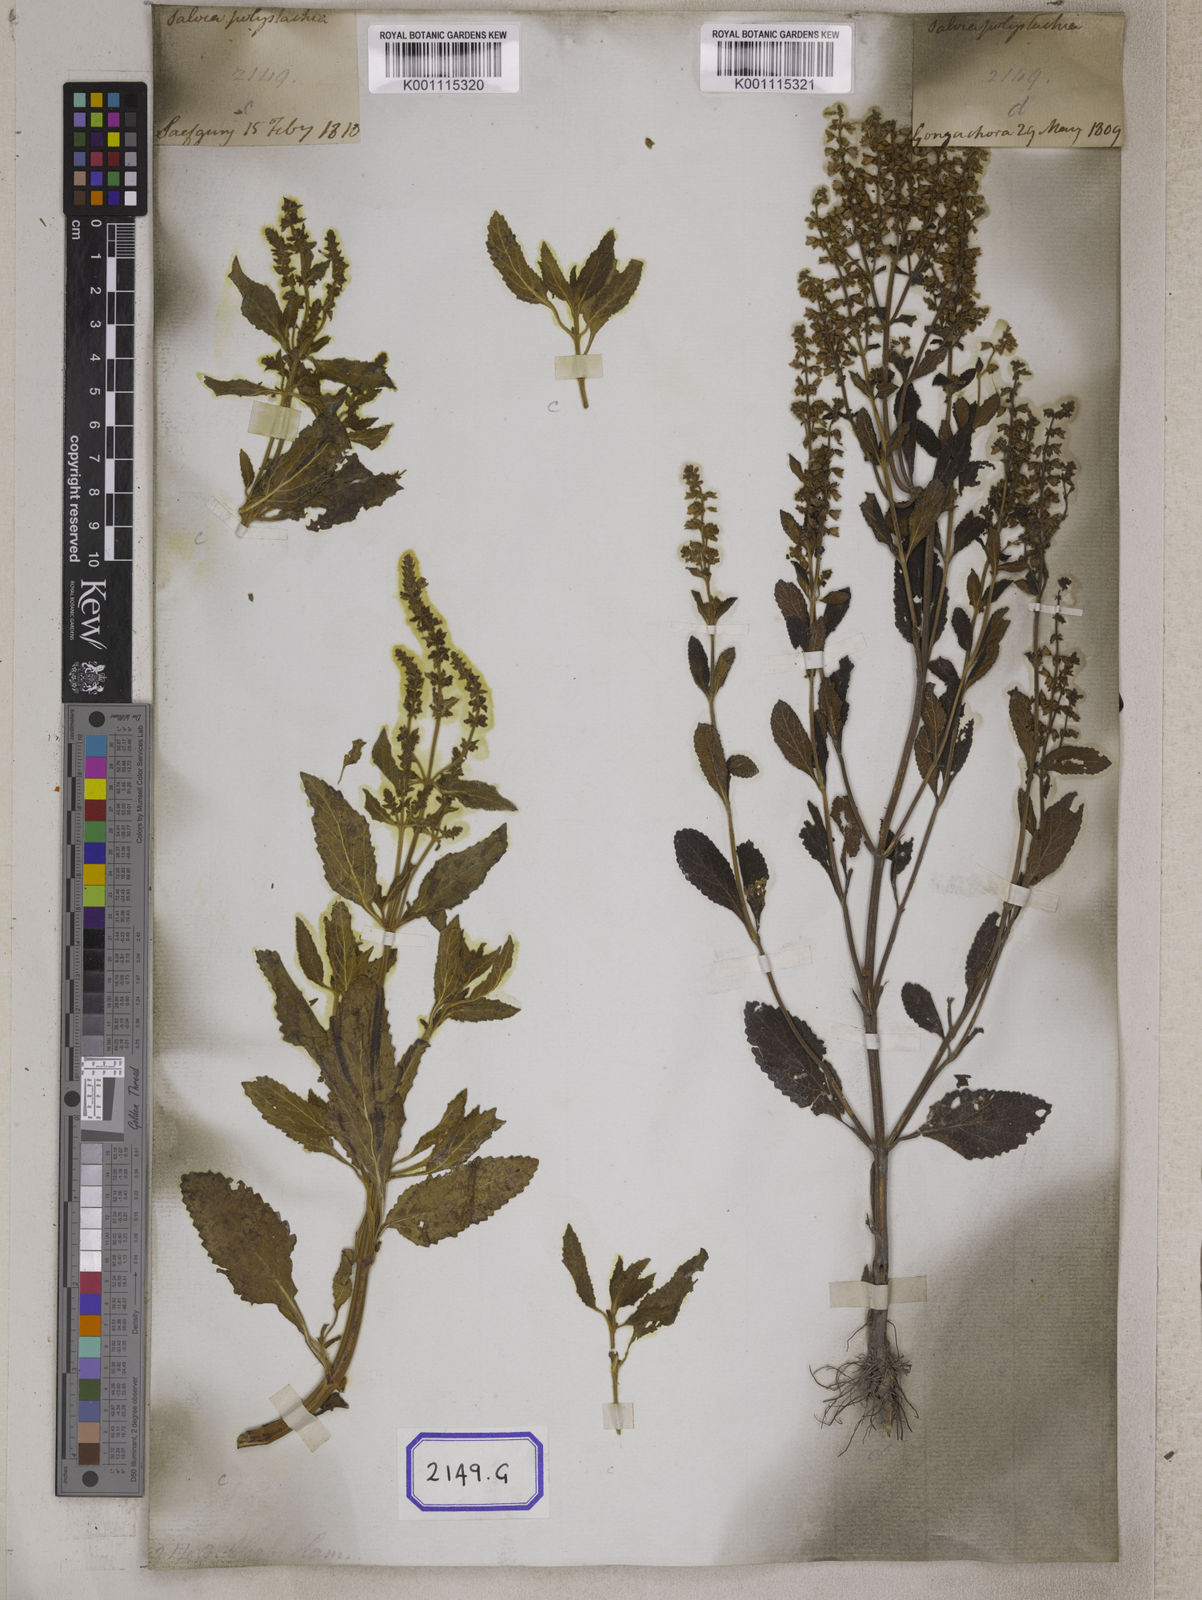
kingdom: Plantae
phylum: Tracheophyta
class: Magnoliopsida
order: Lamiales
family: Lamiaceae
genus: Salvia
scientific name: Salvia plebeia
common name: Australian sage
